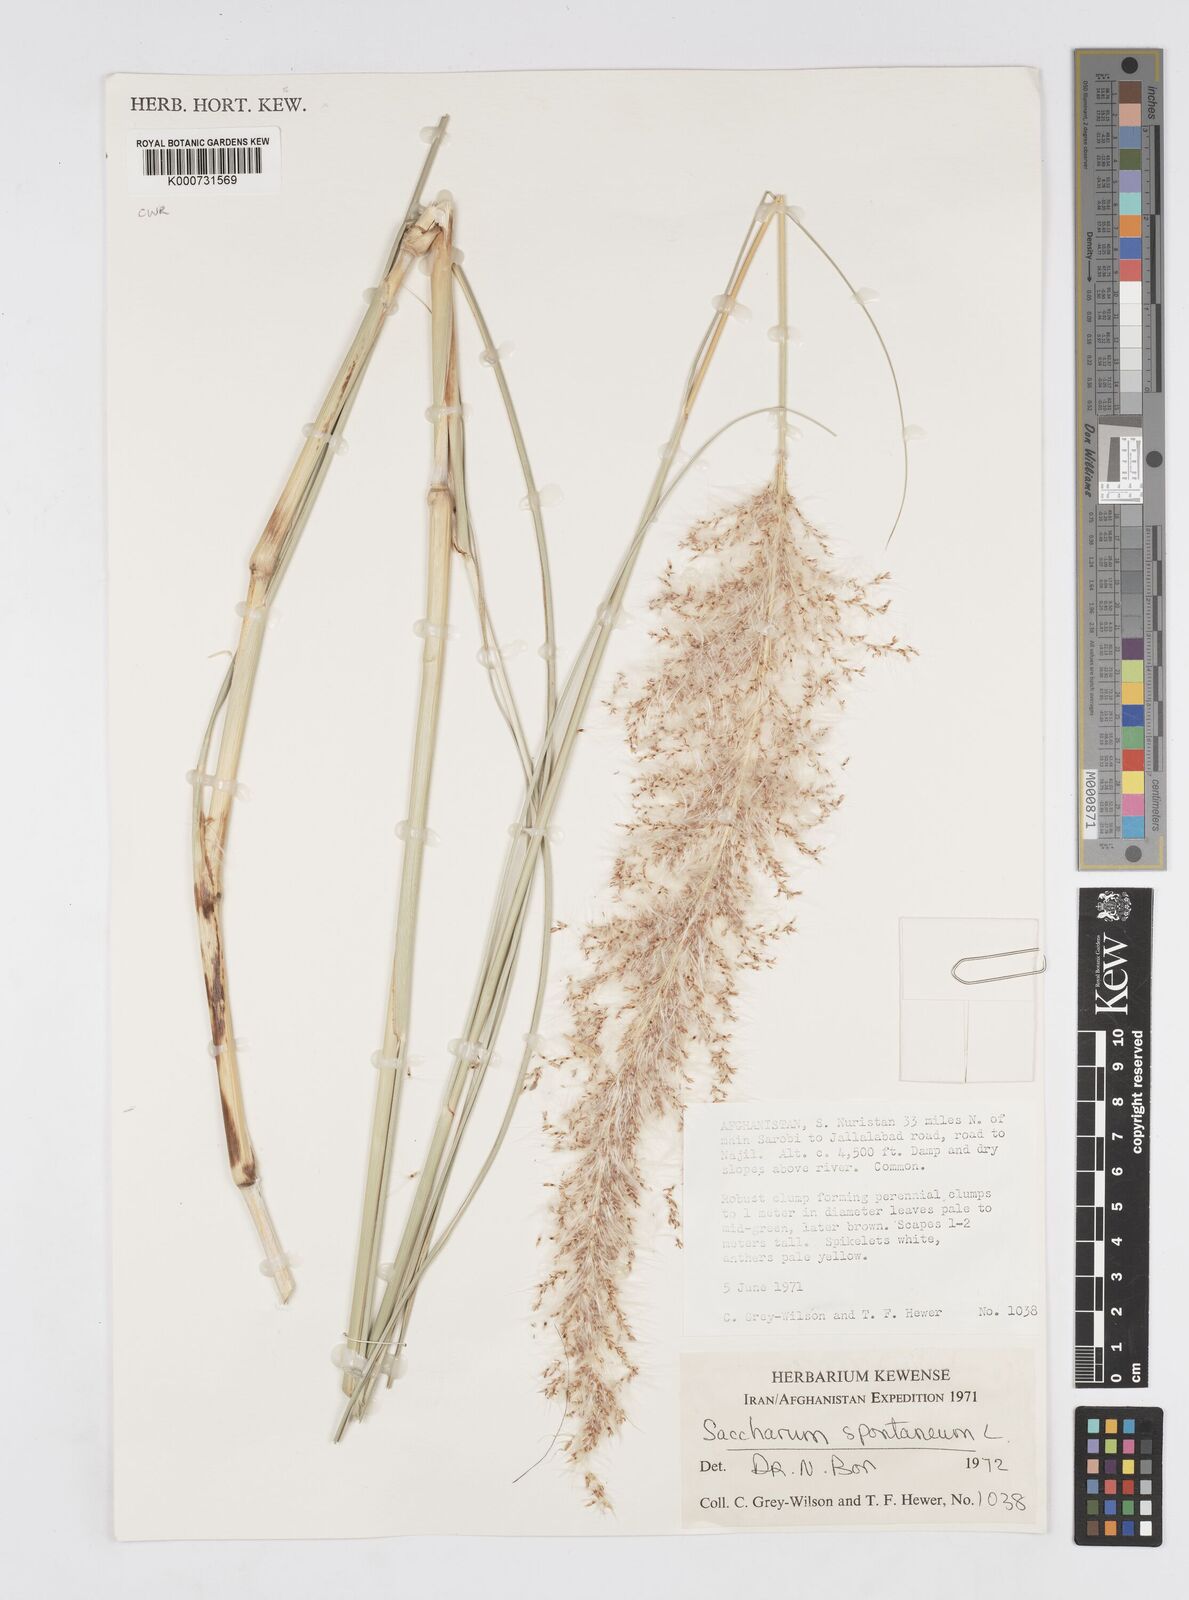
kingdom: Plantae
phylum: Tracheophyta
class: Liliopsida
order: Poales
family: Poaceae
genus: Saccharum
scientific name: Saccharum spontaneum
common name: Wild sugarcane
